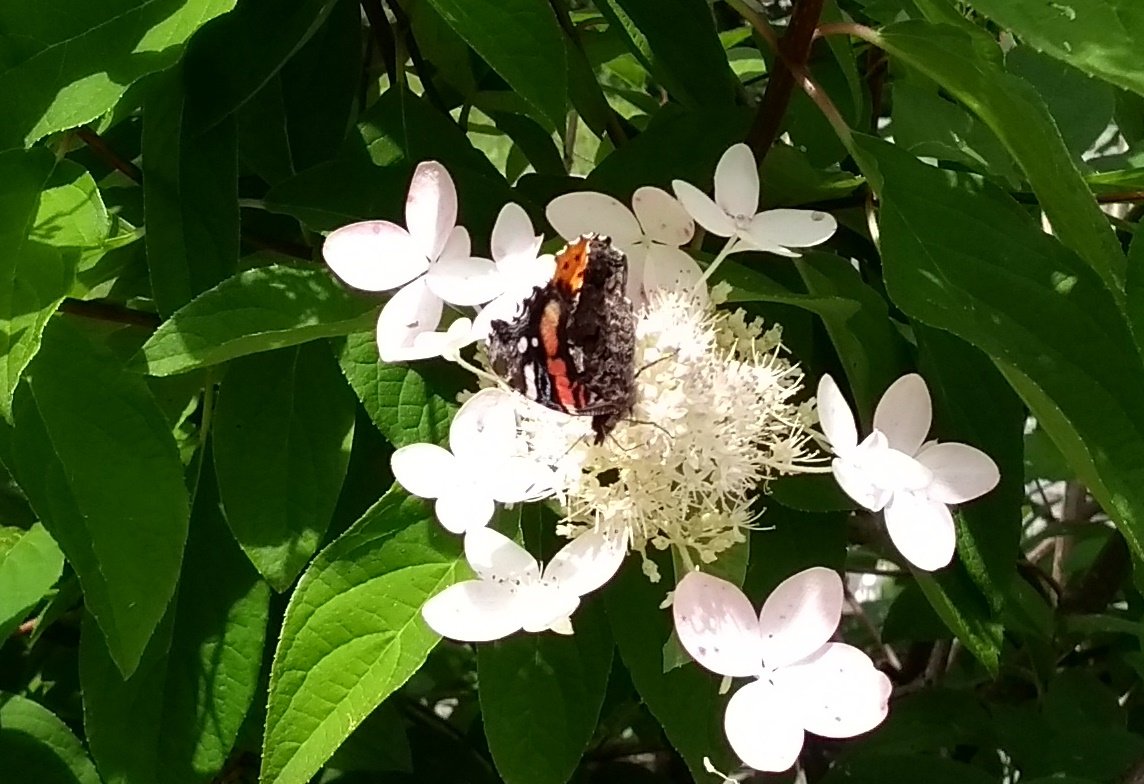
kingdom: Animalia
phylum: Arthropoda
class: Insecta
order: Lepidoptera
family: Nymphalidae
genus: Vanessa
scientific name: Vanessa atalanta
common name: Red Admiral
